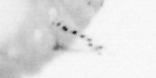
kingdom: Animalia
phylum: Annelida
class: Polychaeta
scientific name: Polychaeta
